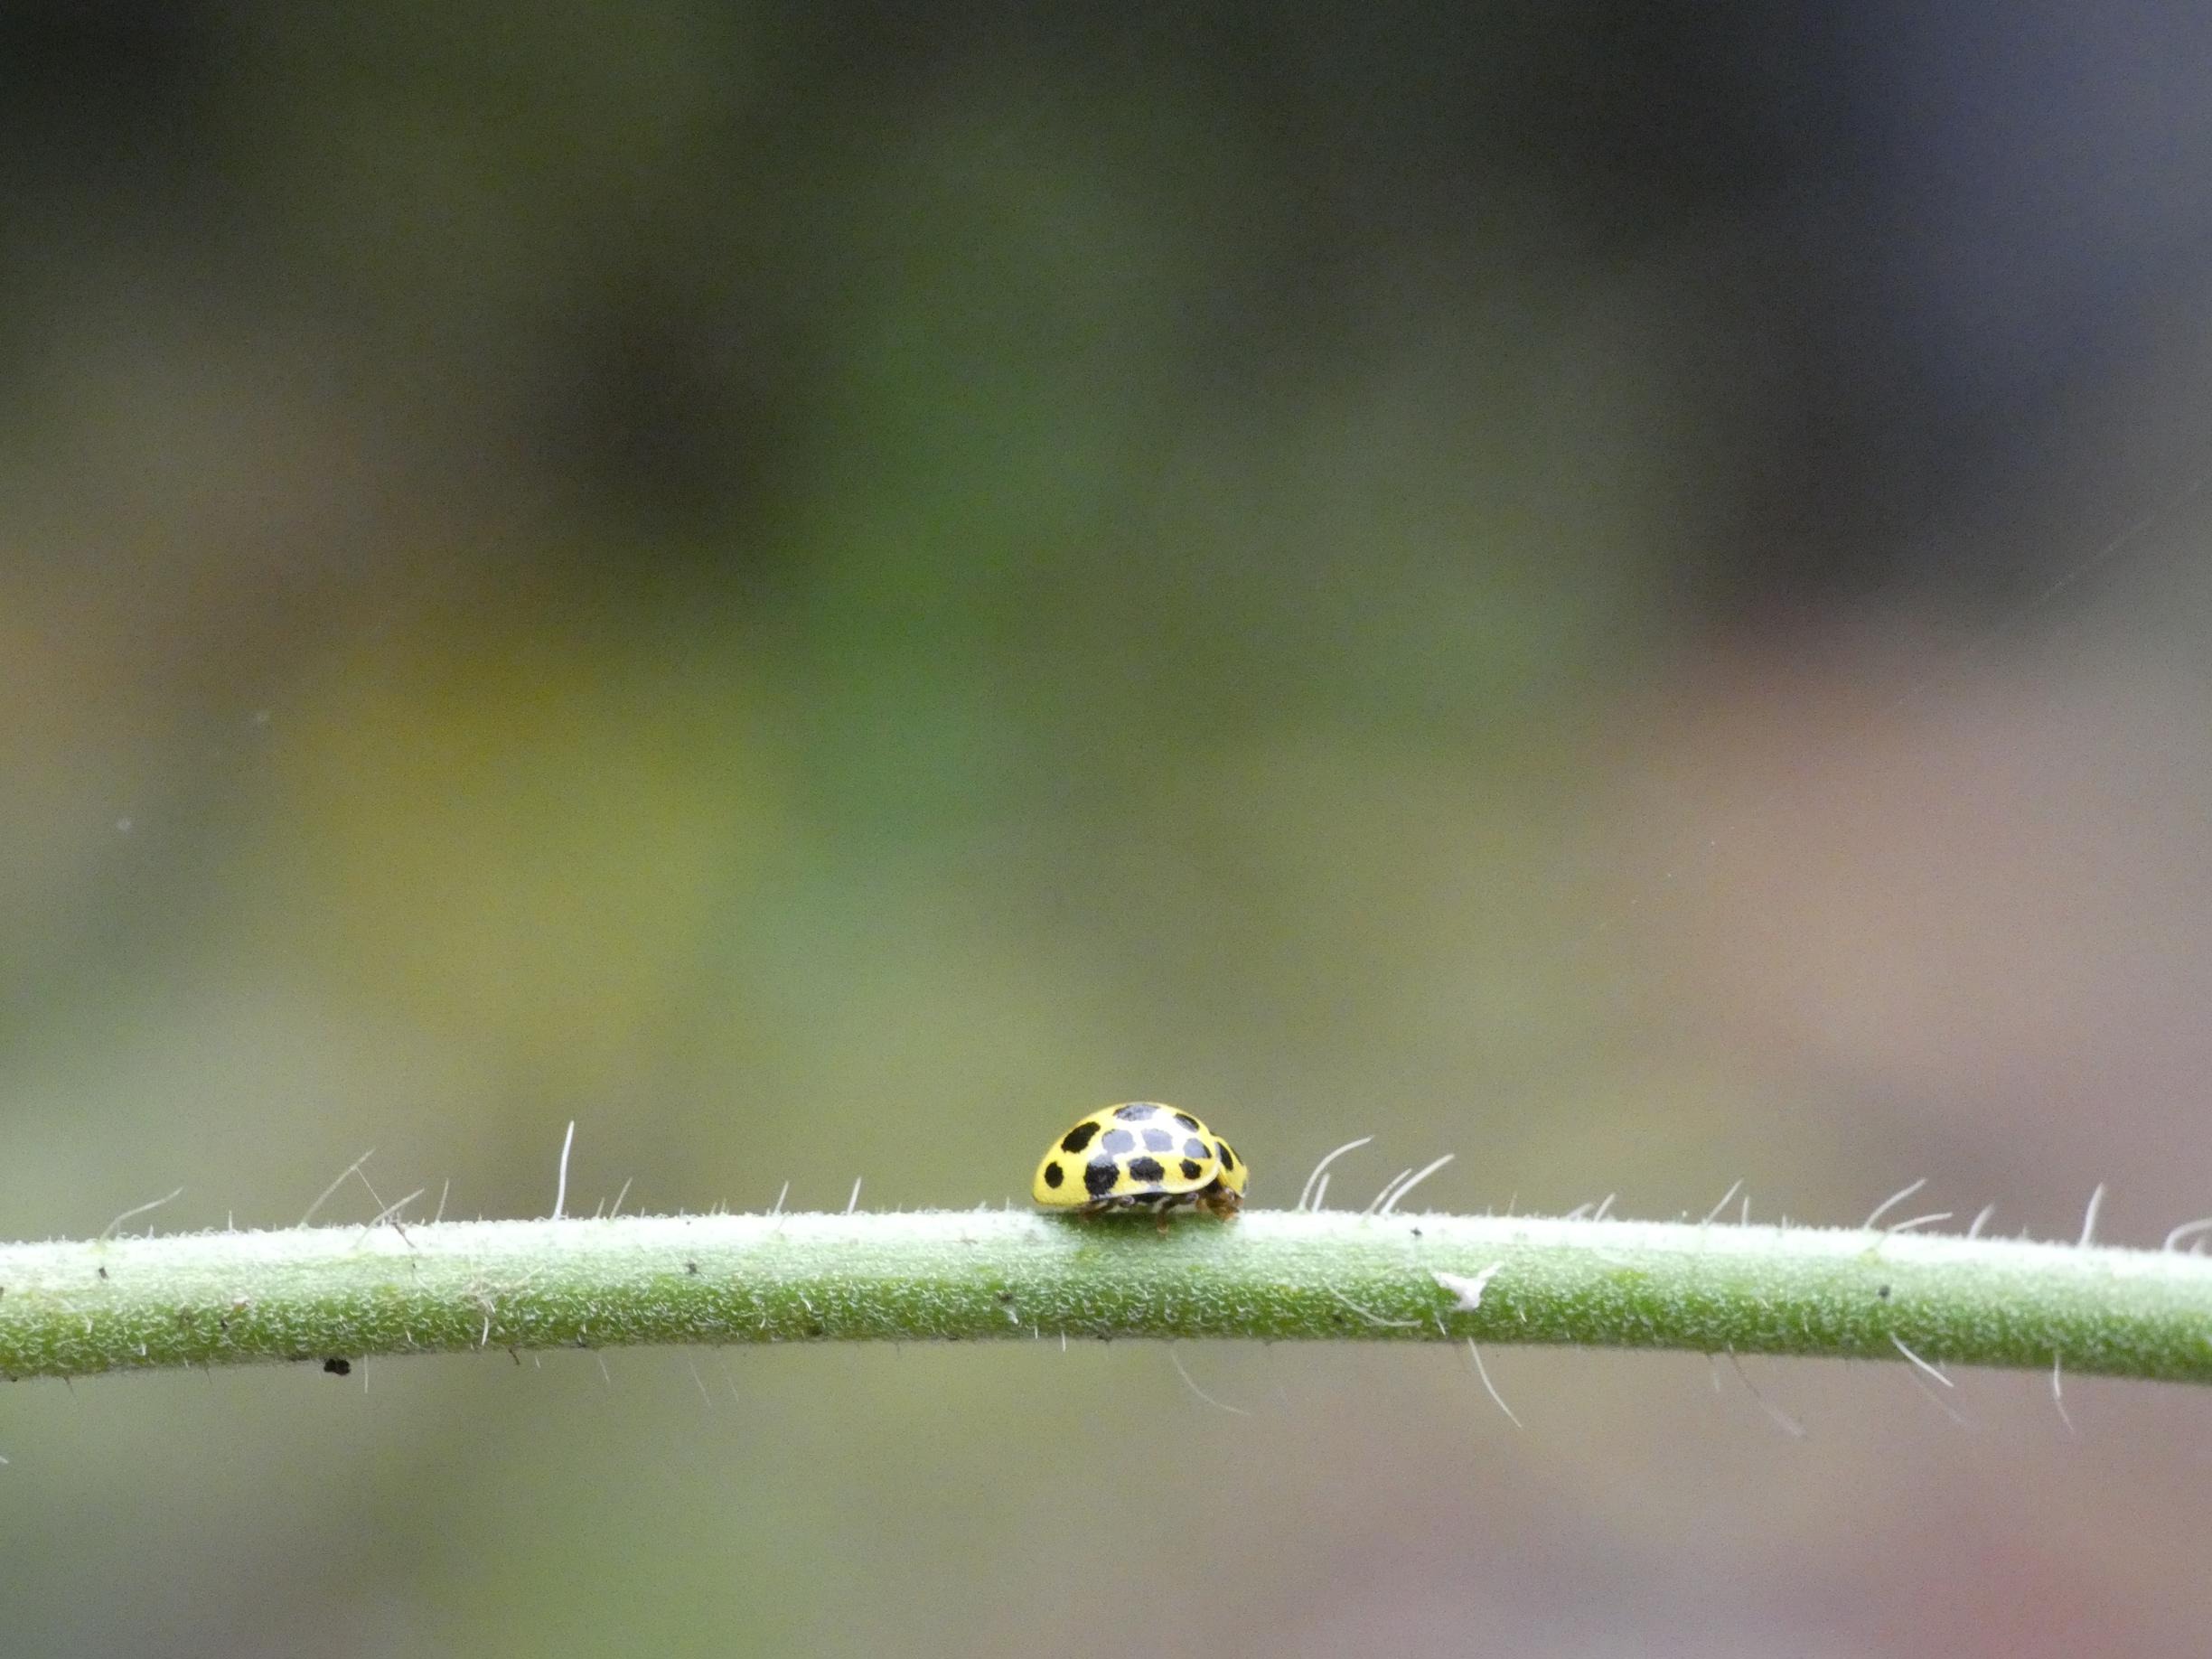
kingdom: Animalia
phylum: Arthropoda
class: Insecta
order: Coleoptera
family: Coccinellidae
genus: Psyllobora
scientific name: Psyllobora vigintiduopunctata
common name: Toogtyveplettet mariehøne
